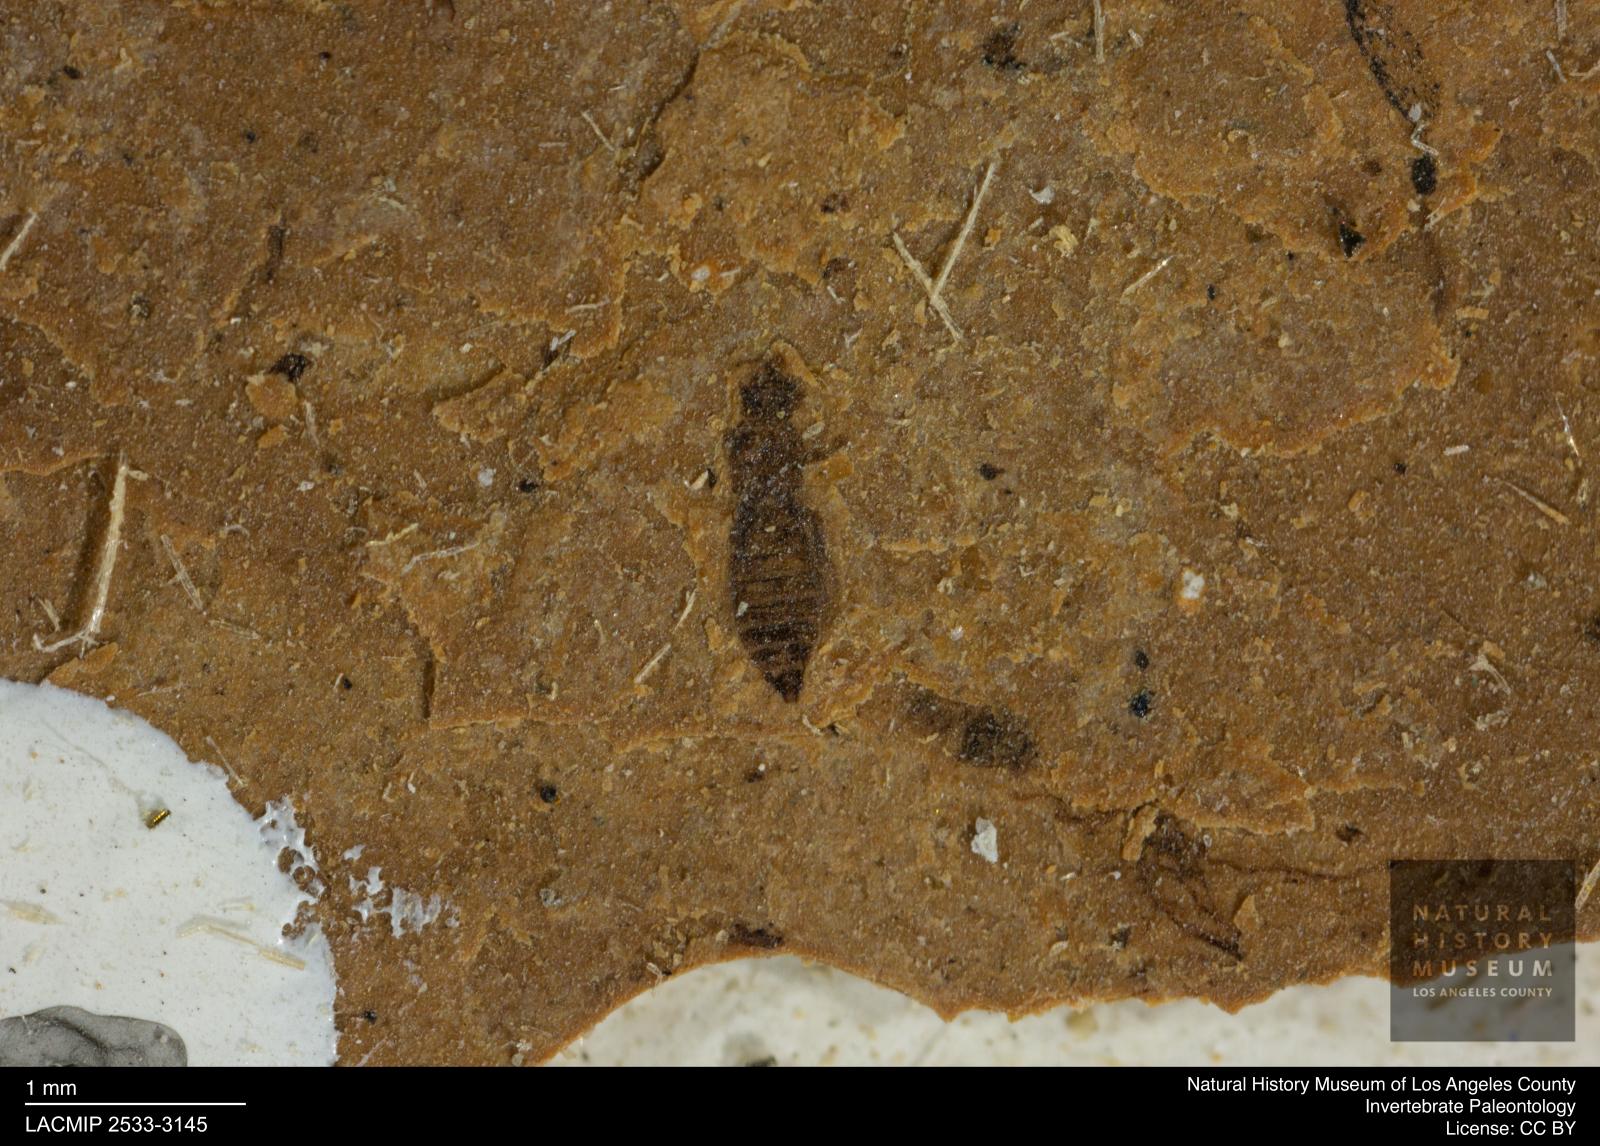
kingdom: Animalia
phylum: Arthropoda
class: Insecta
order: Thysanoptera
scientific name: Thysanoptera
